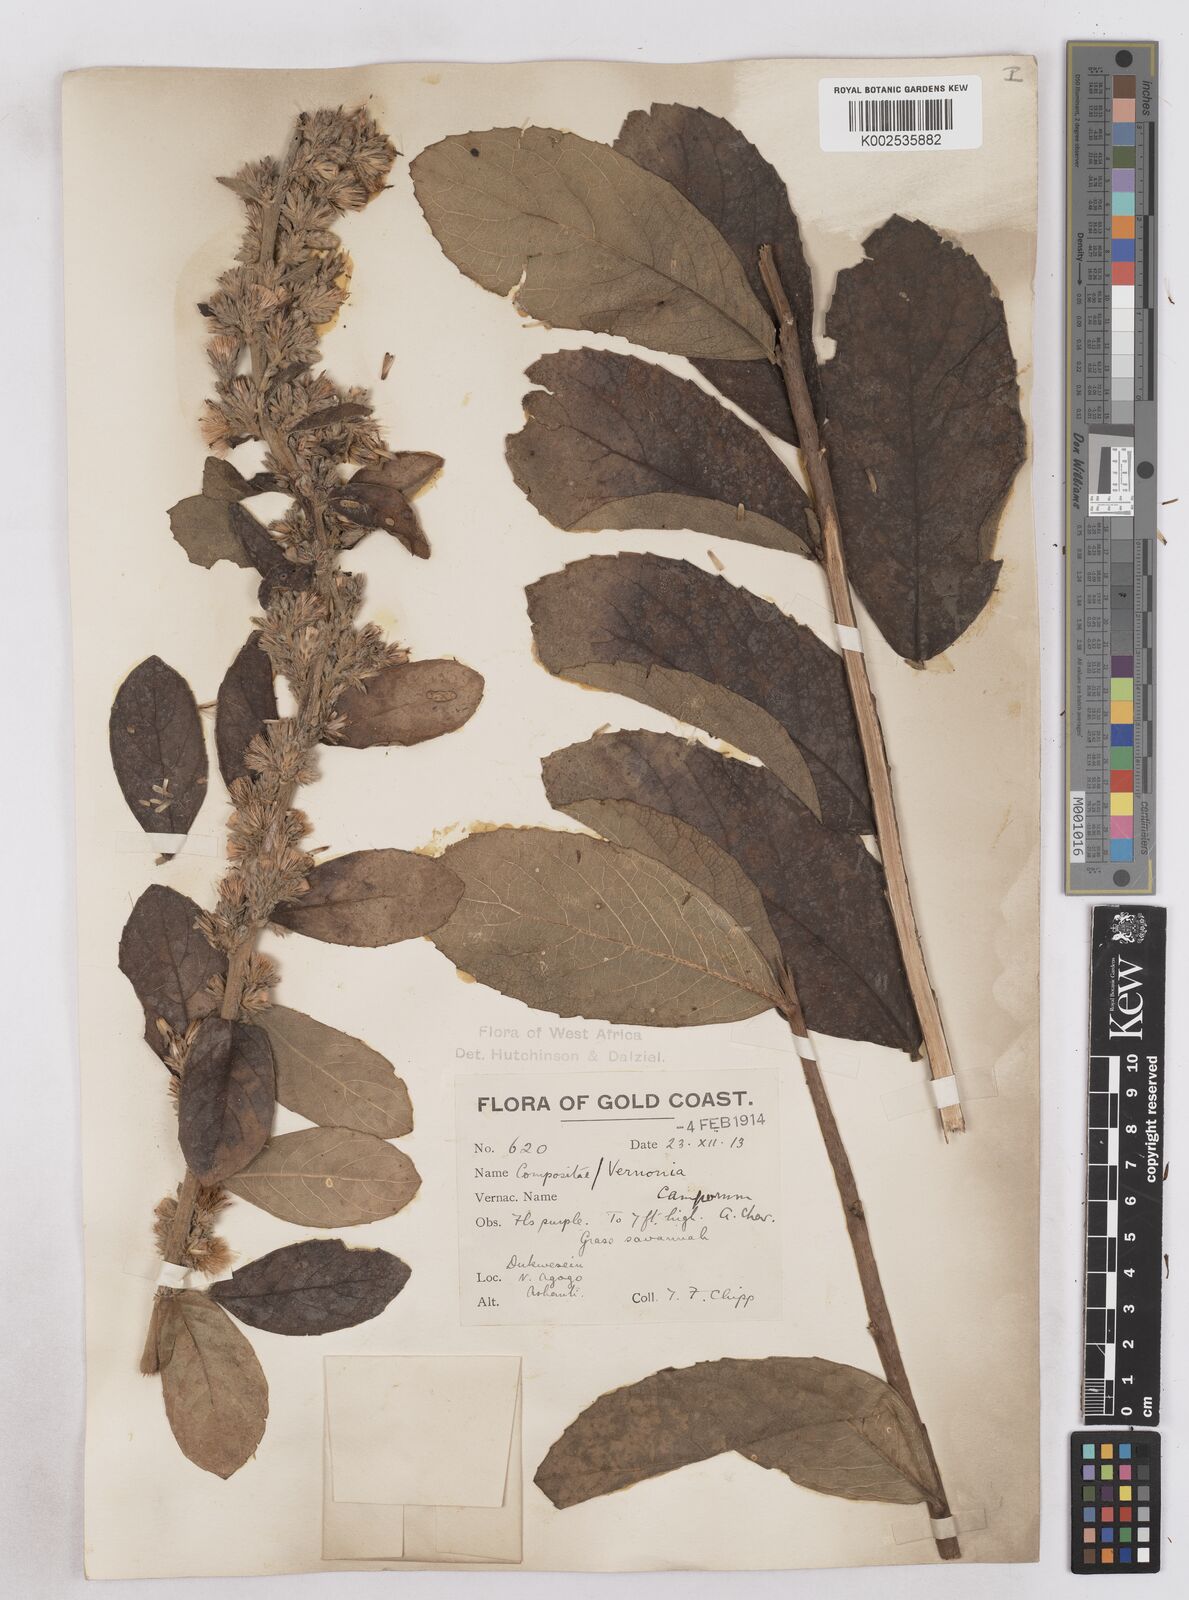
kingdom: Plantae
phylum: Tracheophyta
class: Magnoliopsida
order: Asterales
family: Asteraceae
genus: Vernoniastrum
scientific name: Vernoniastrum camporum
